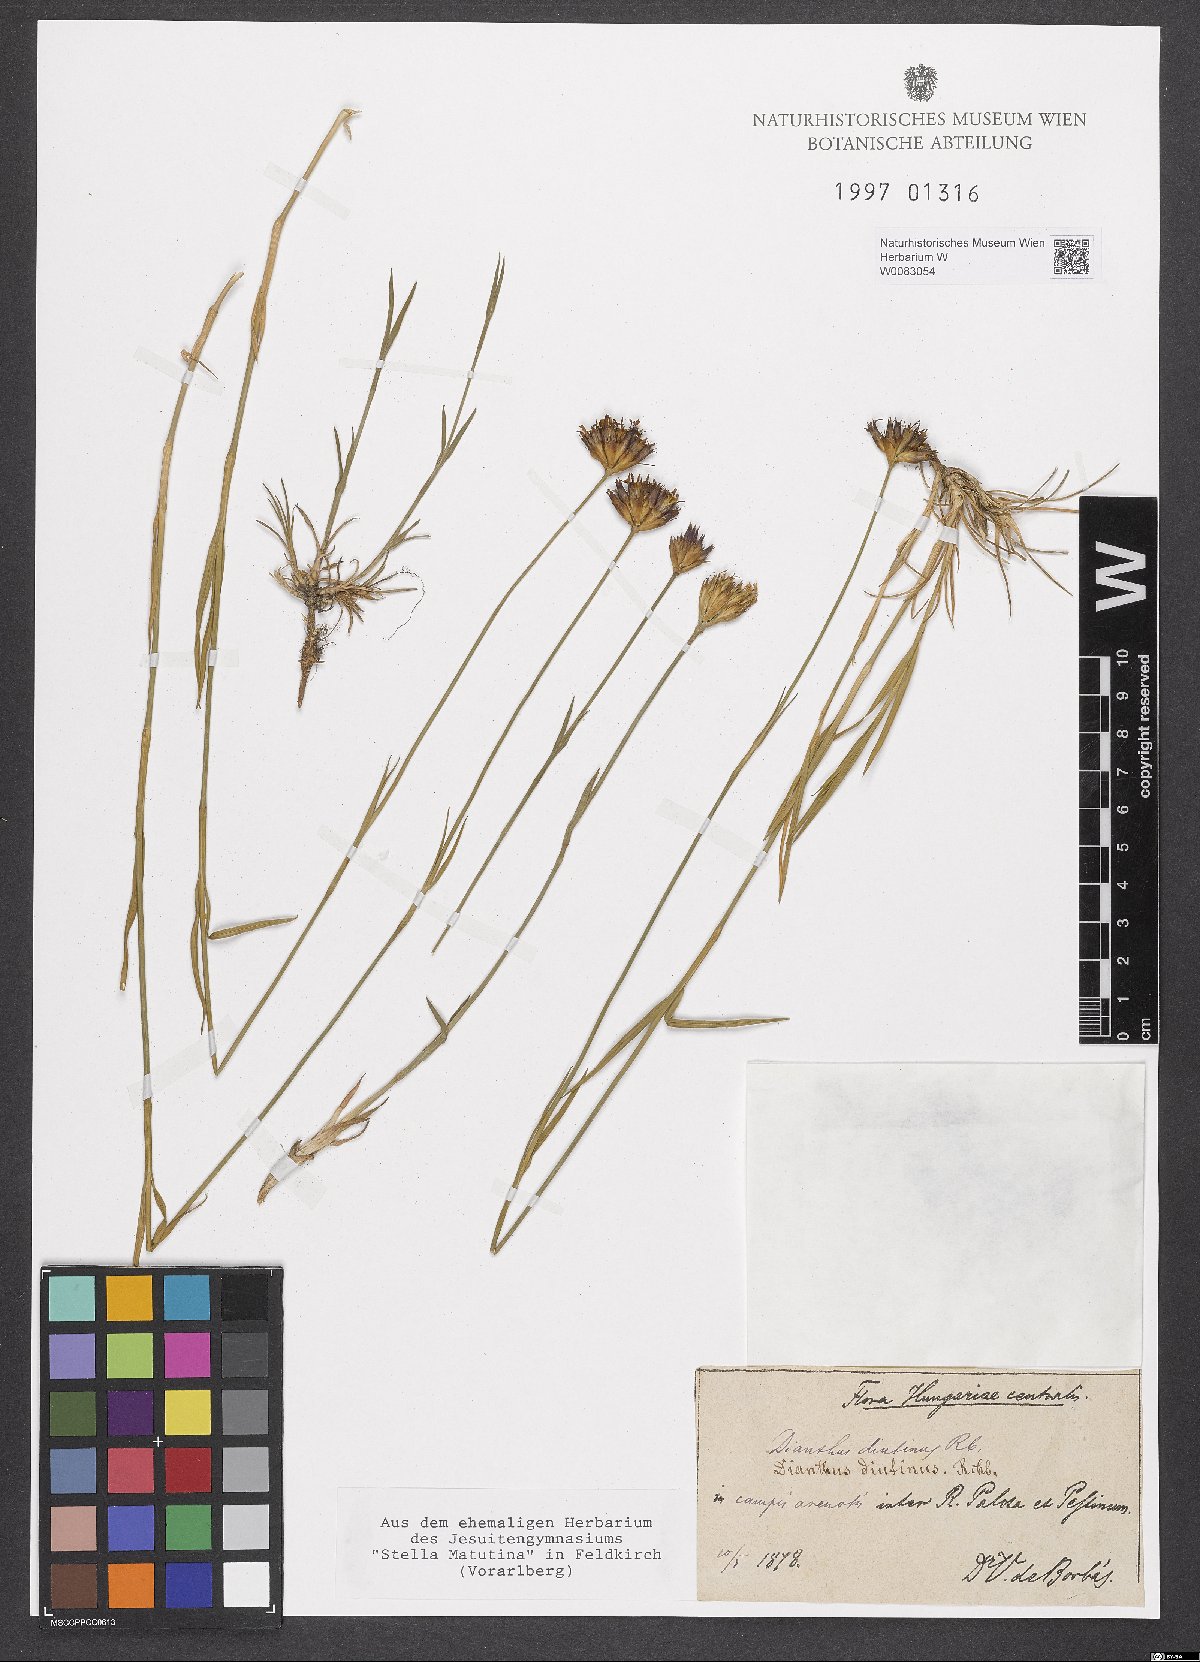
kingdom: Plantae
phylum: Tracheophyta
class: Magnoliopsida
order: Caryophyllales
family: Caryophyllaceae
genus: Dianthus
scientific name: Dianthus polymorphus
